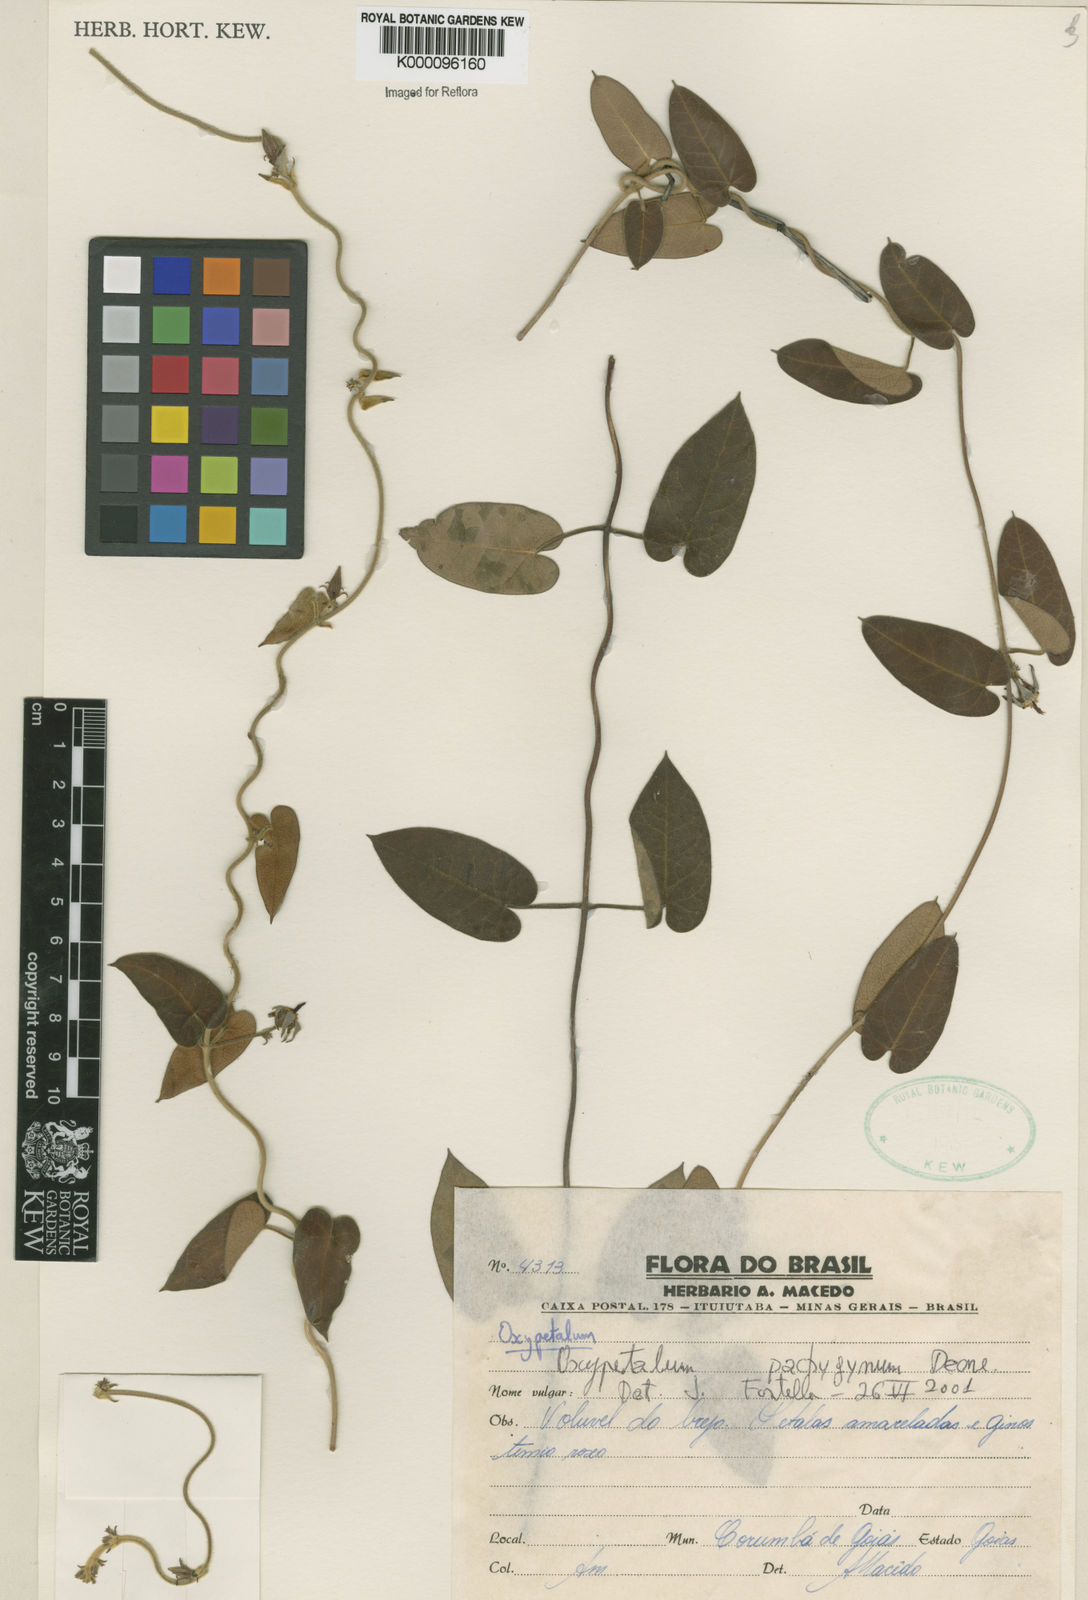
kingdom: Plantae
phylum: Tracheophyta
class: Magnoliopsida
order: Gentianales
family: Apocynaceae
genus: Oxypetalum
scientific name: Oxypetalum pachyglossum
